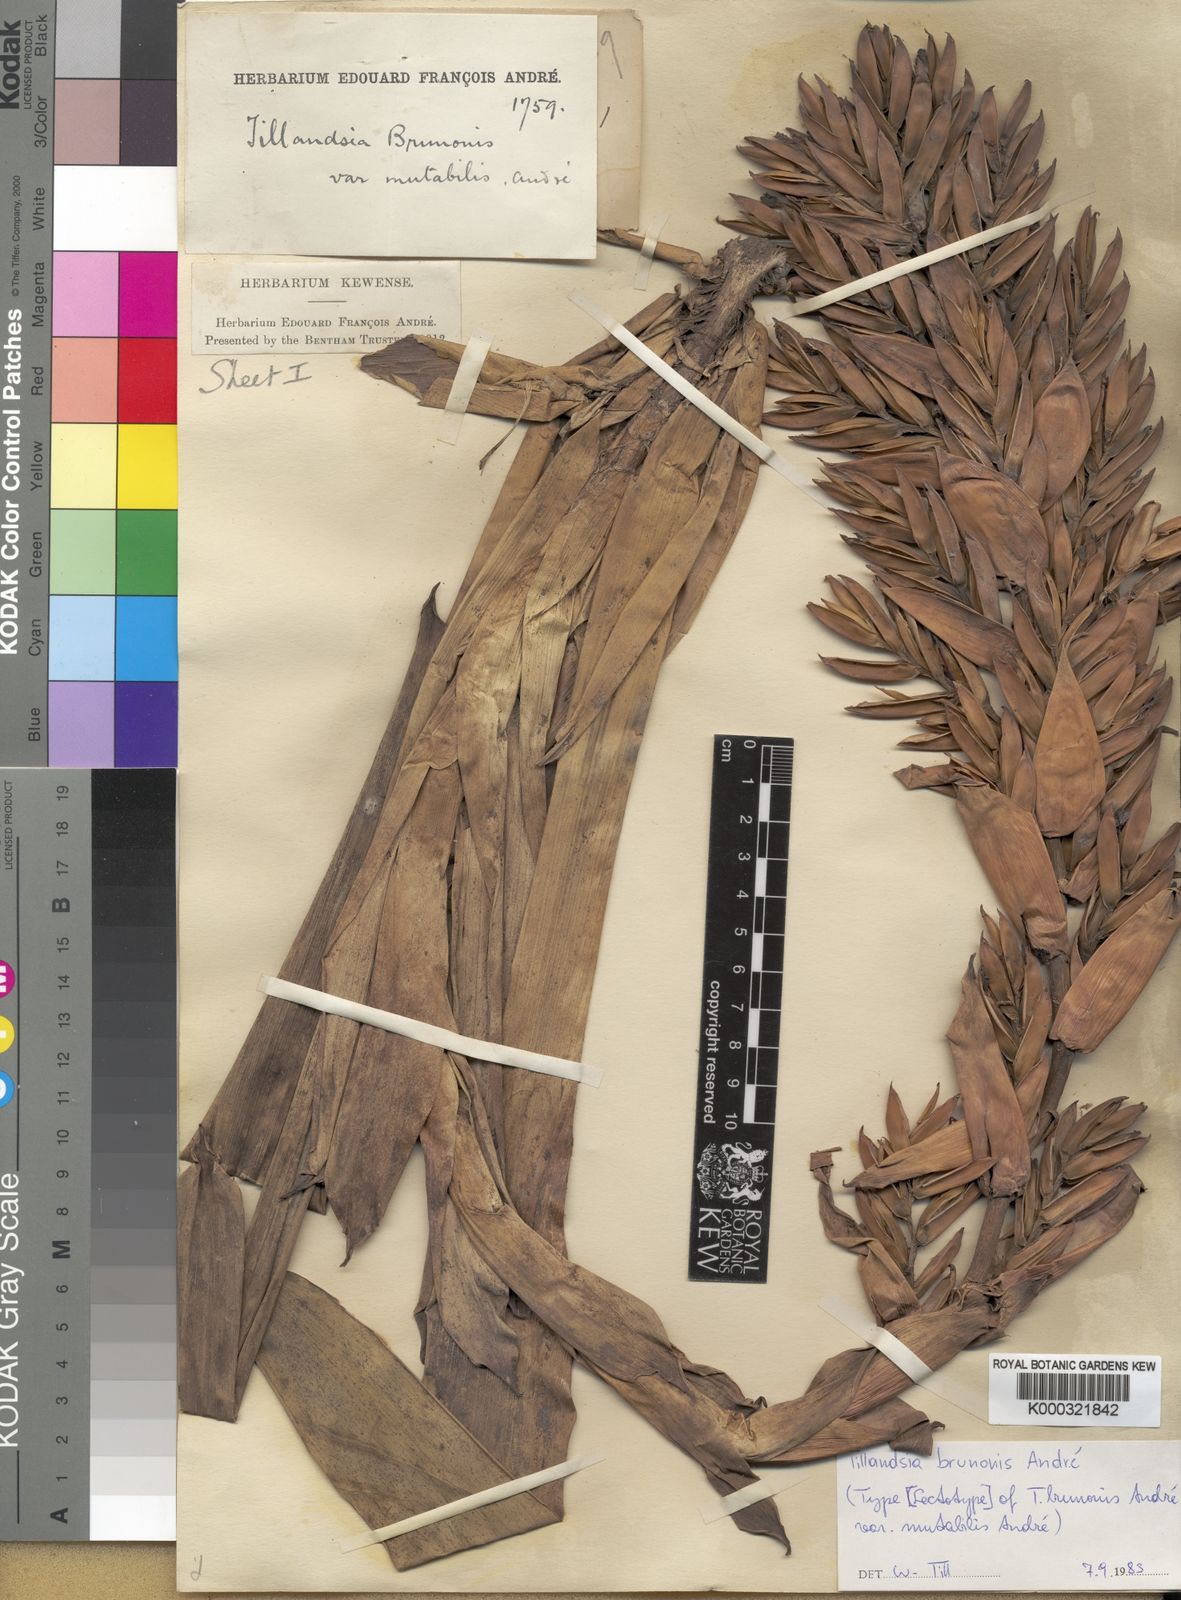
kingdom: Plantae
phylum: Tracheophyta
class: Liliopsida
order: Poales
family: Bromeliaceae
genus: Tillandsia
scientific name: Tillandsia
